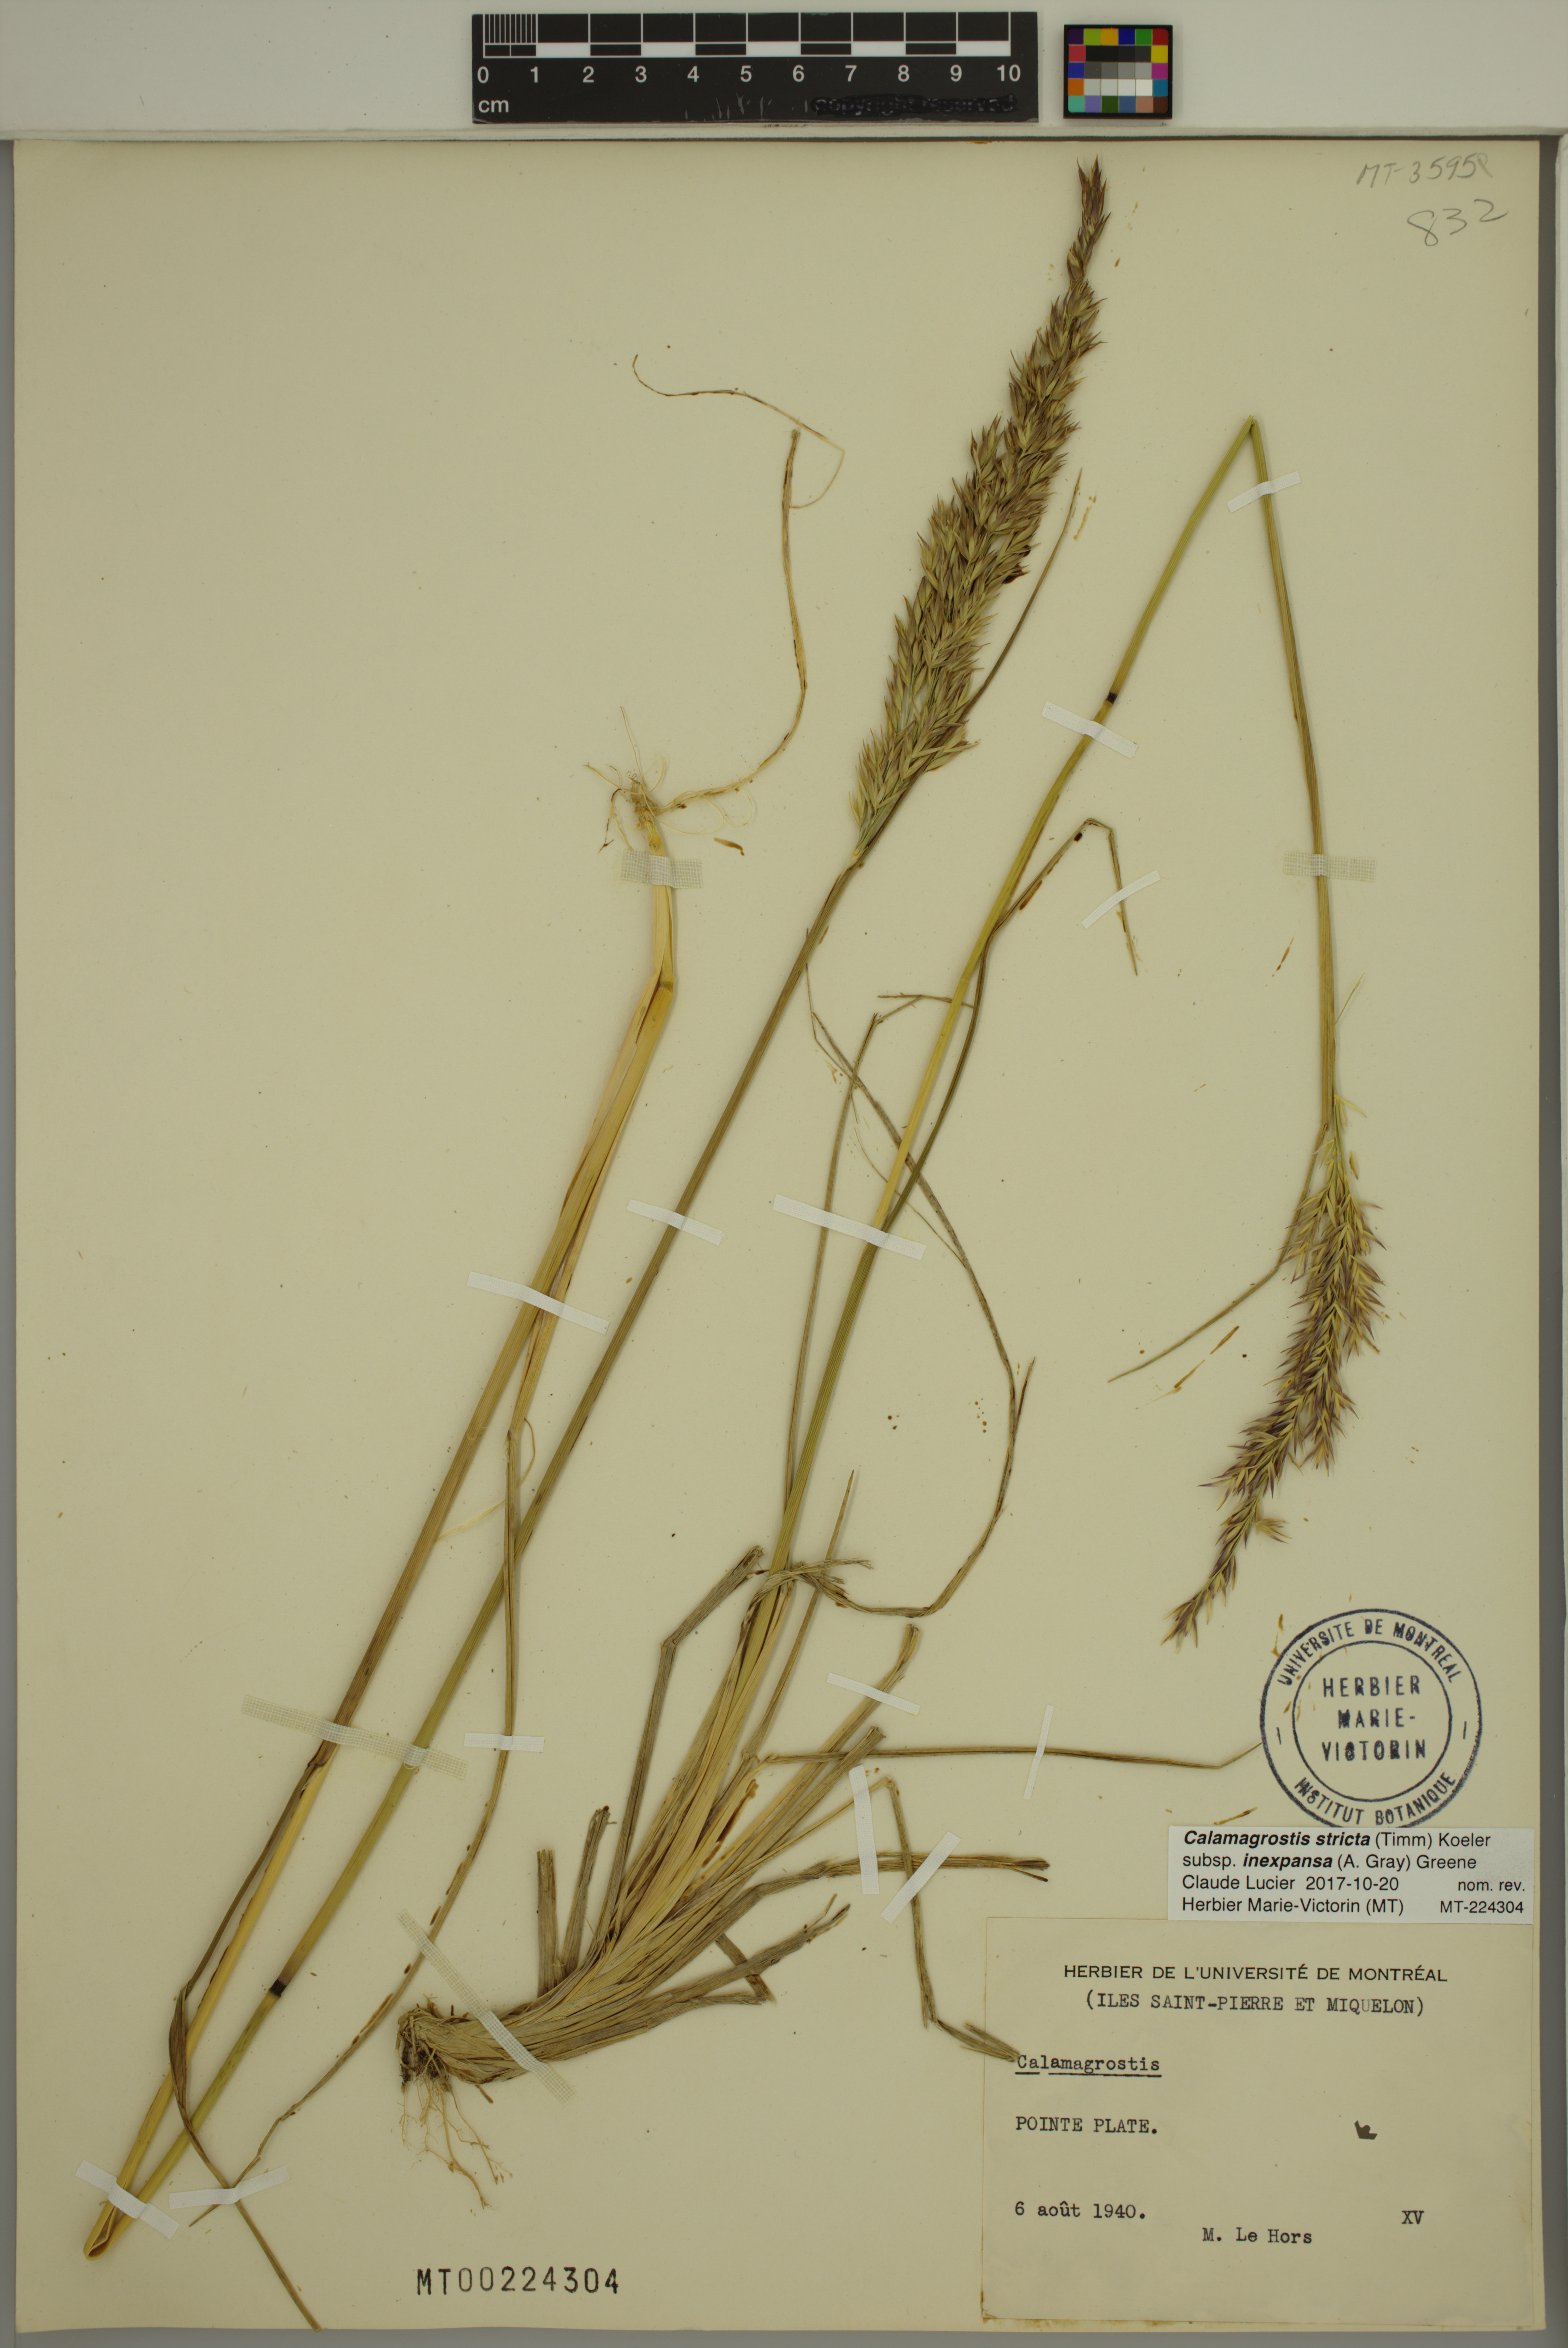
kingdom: Plantae
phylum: Tracheophyta
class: Liliopsida
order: Poales
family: Poaceae
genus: Calamagrostis
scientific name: Calamagrostis inexpansa
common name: Northern reedgrass
